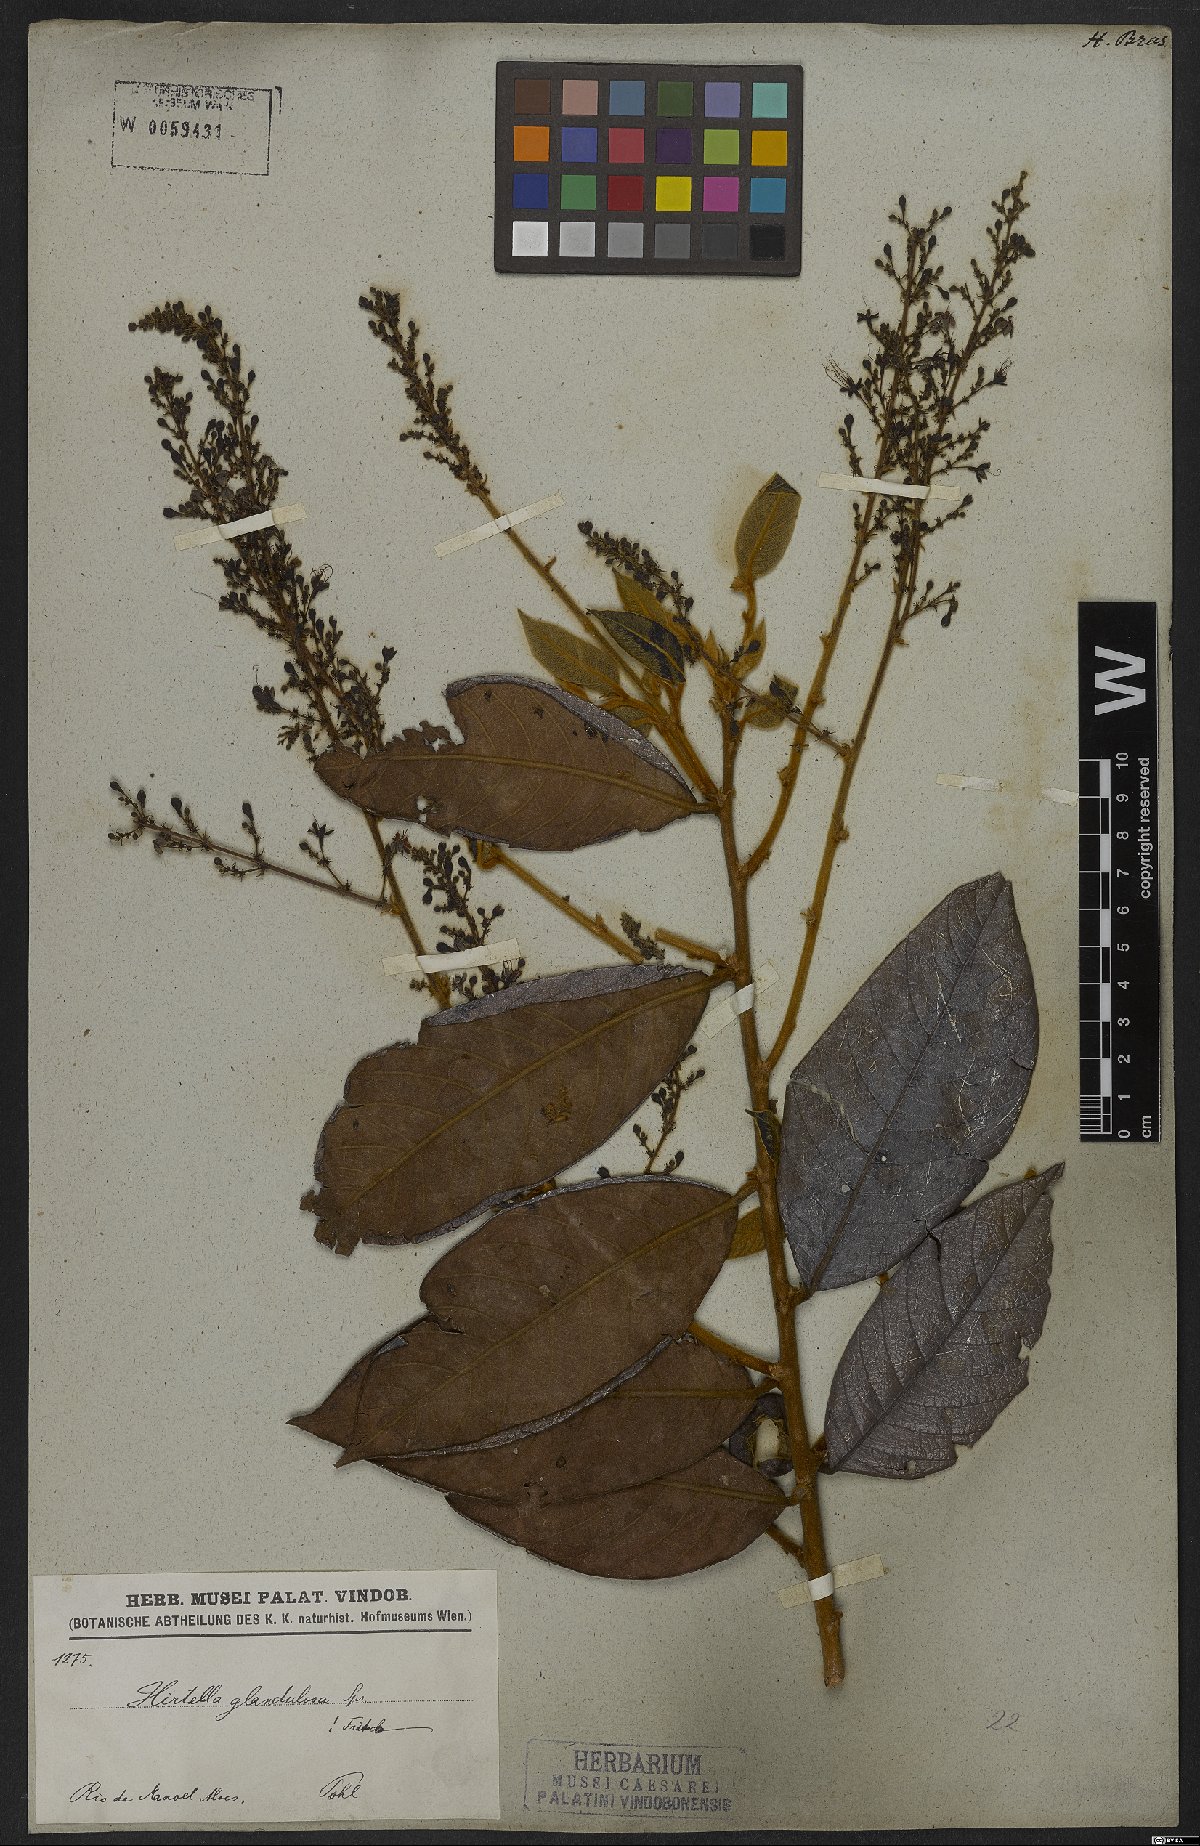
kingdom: Plantae
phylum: Tracheophyta
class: Magnoliopsida
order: Malpighiales
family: Chrysobalanaceae
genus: Hirtella
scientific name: Hirtella glandulosa
